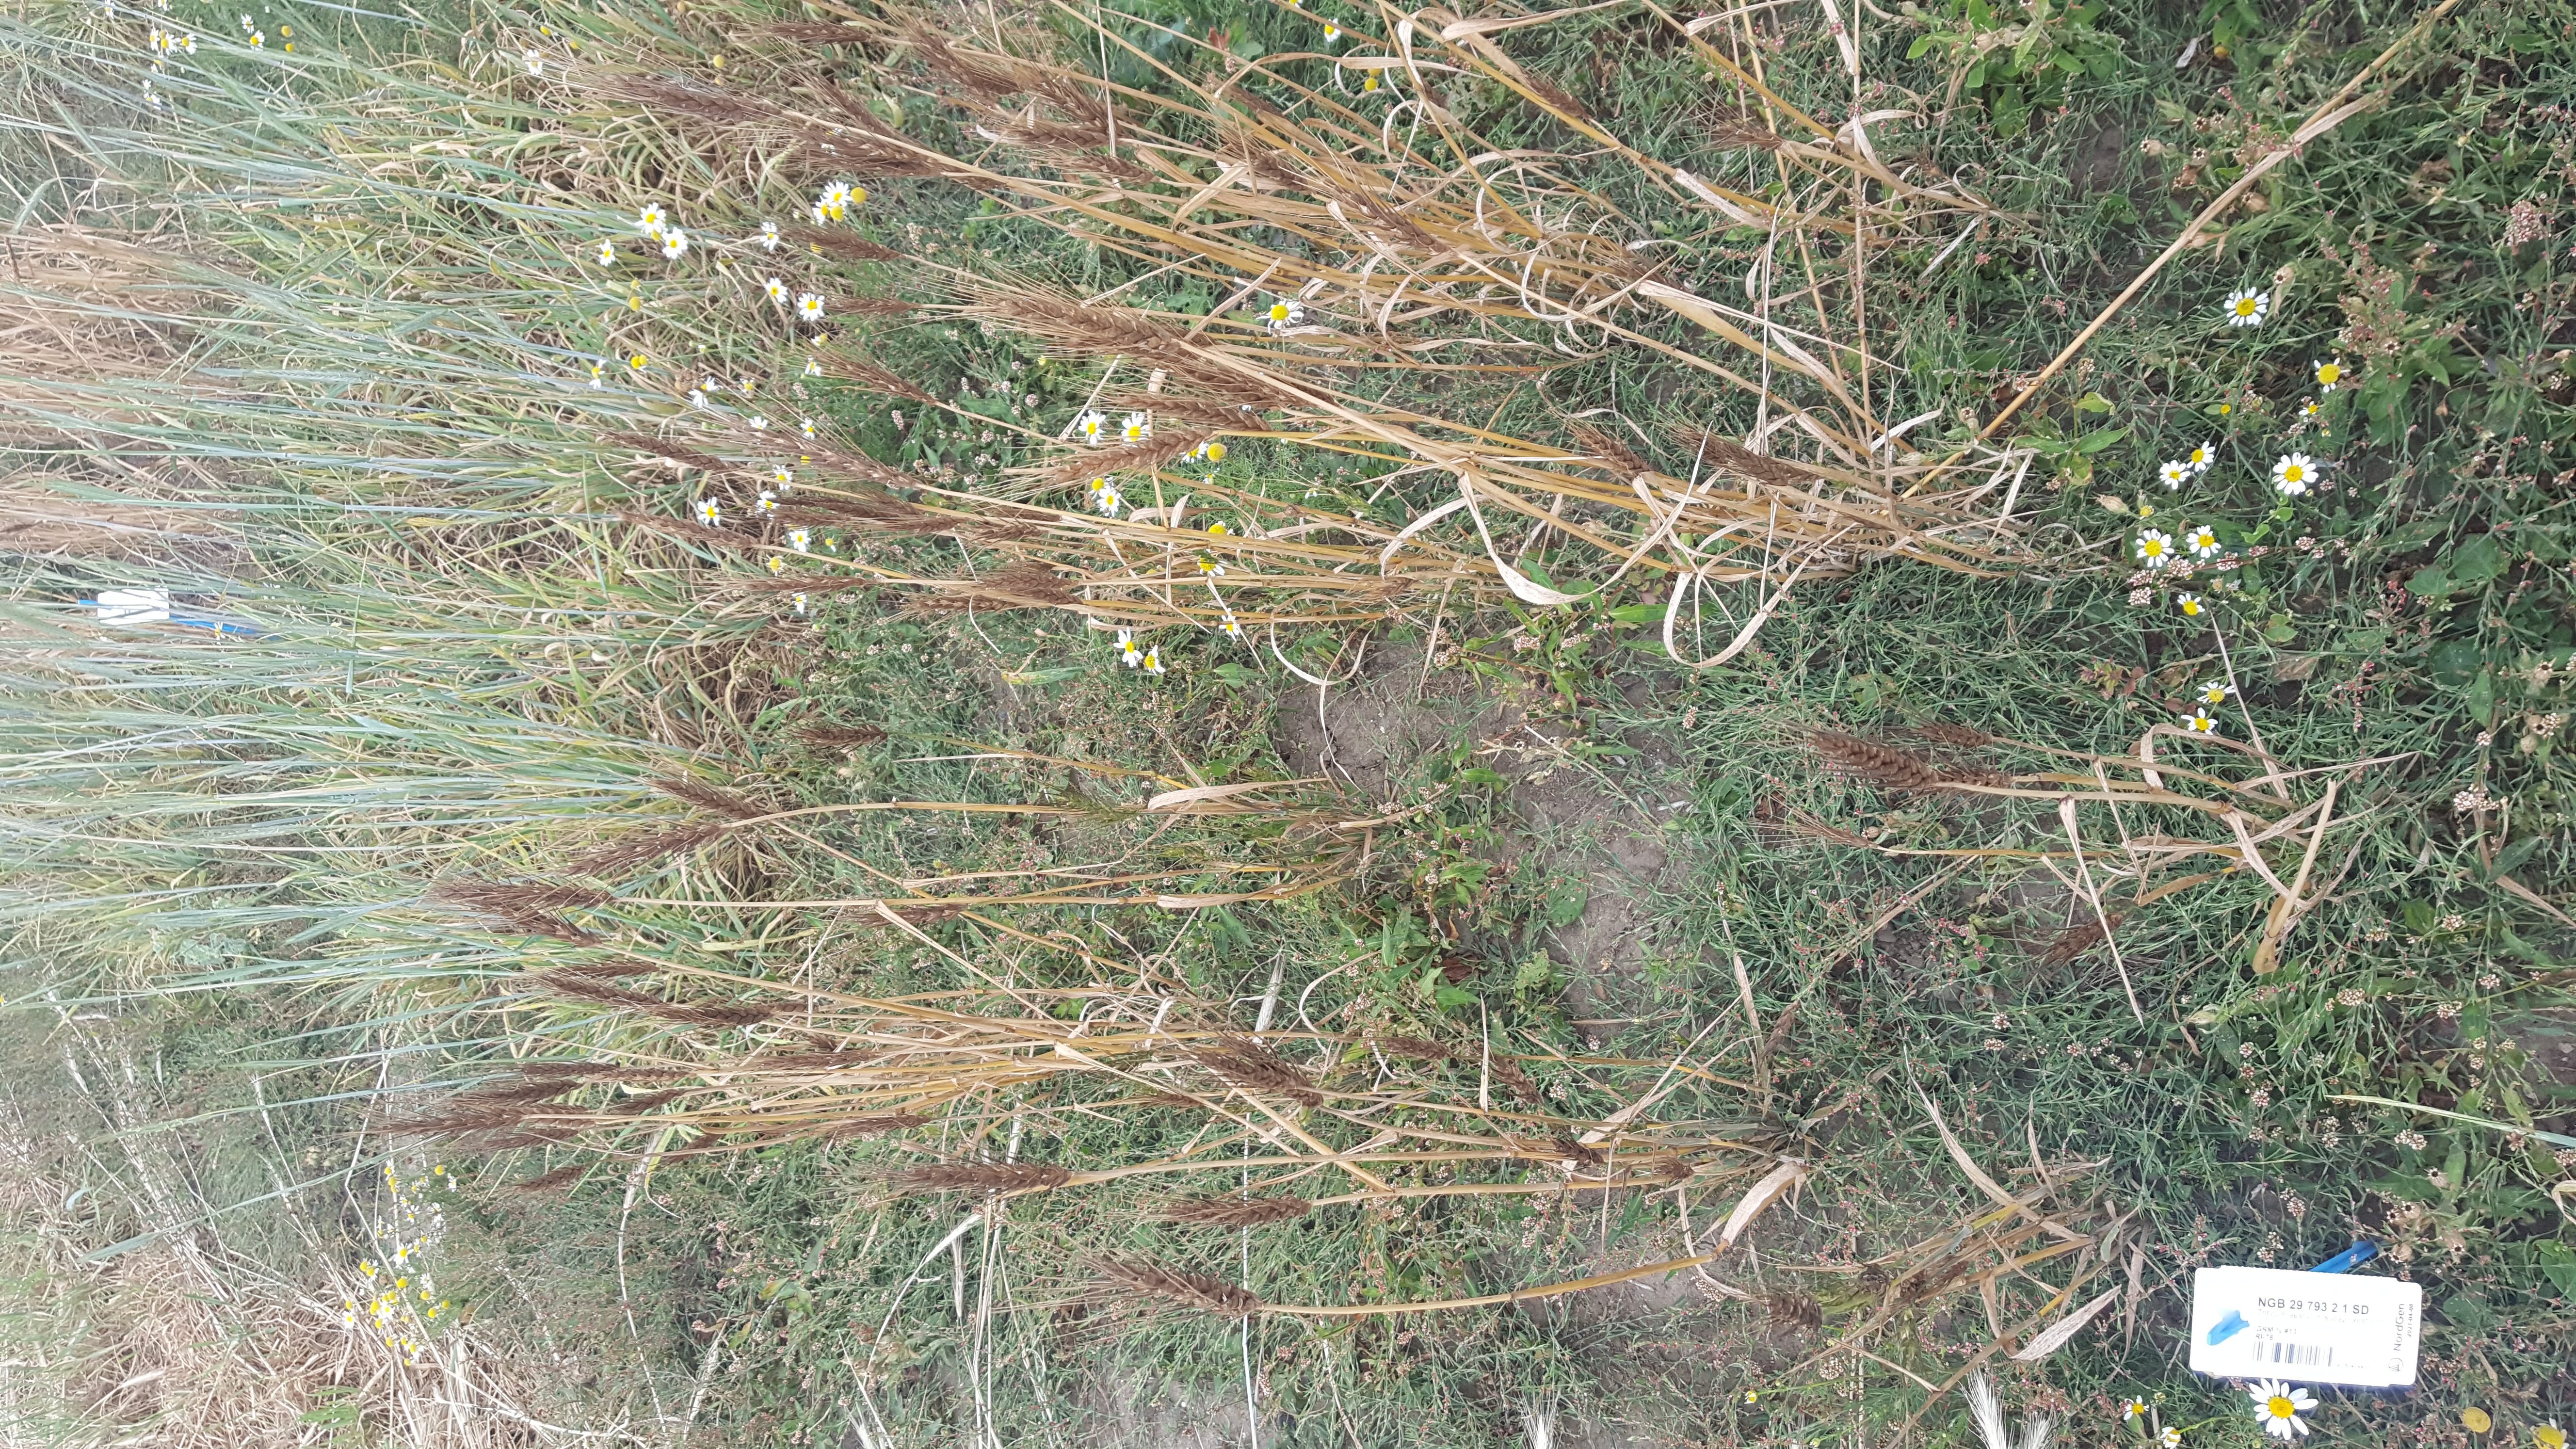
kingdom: Plantae
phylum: Tracheophyta
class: Liliopsida
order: Poales
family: Poaceae
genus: Triticum
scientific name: Triticum aestivum
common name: Common wheat
